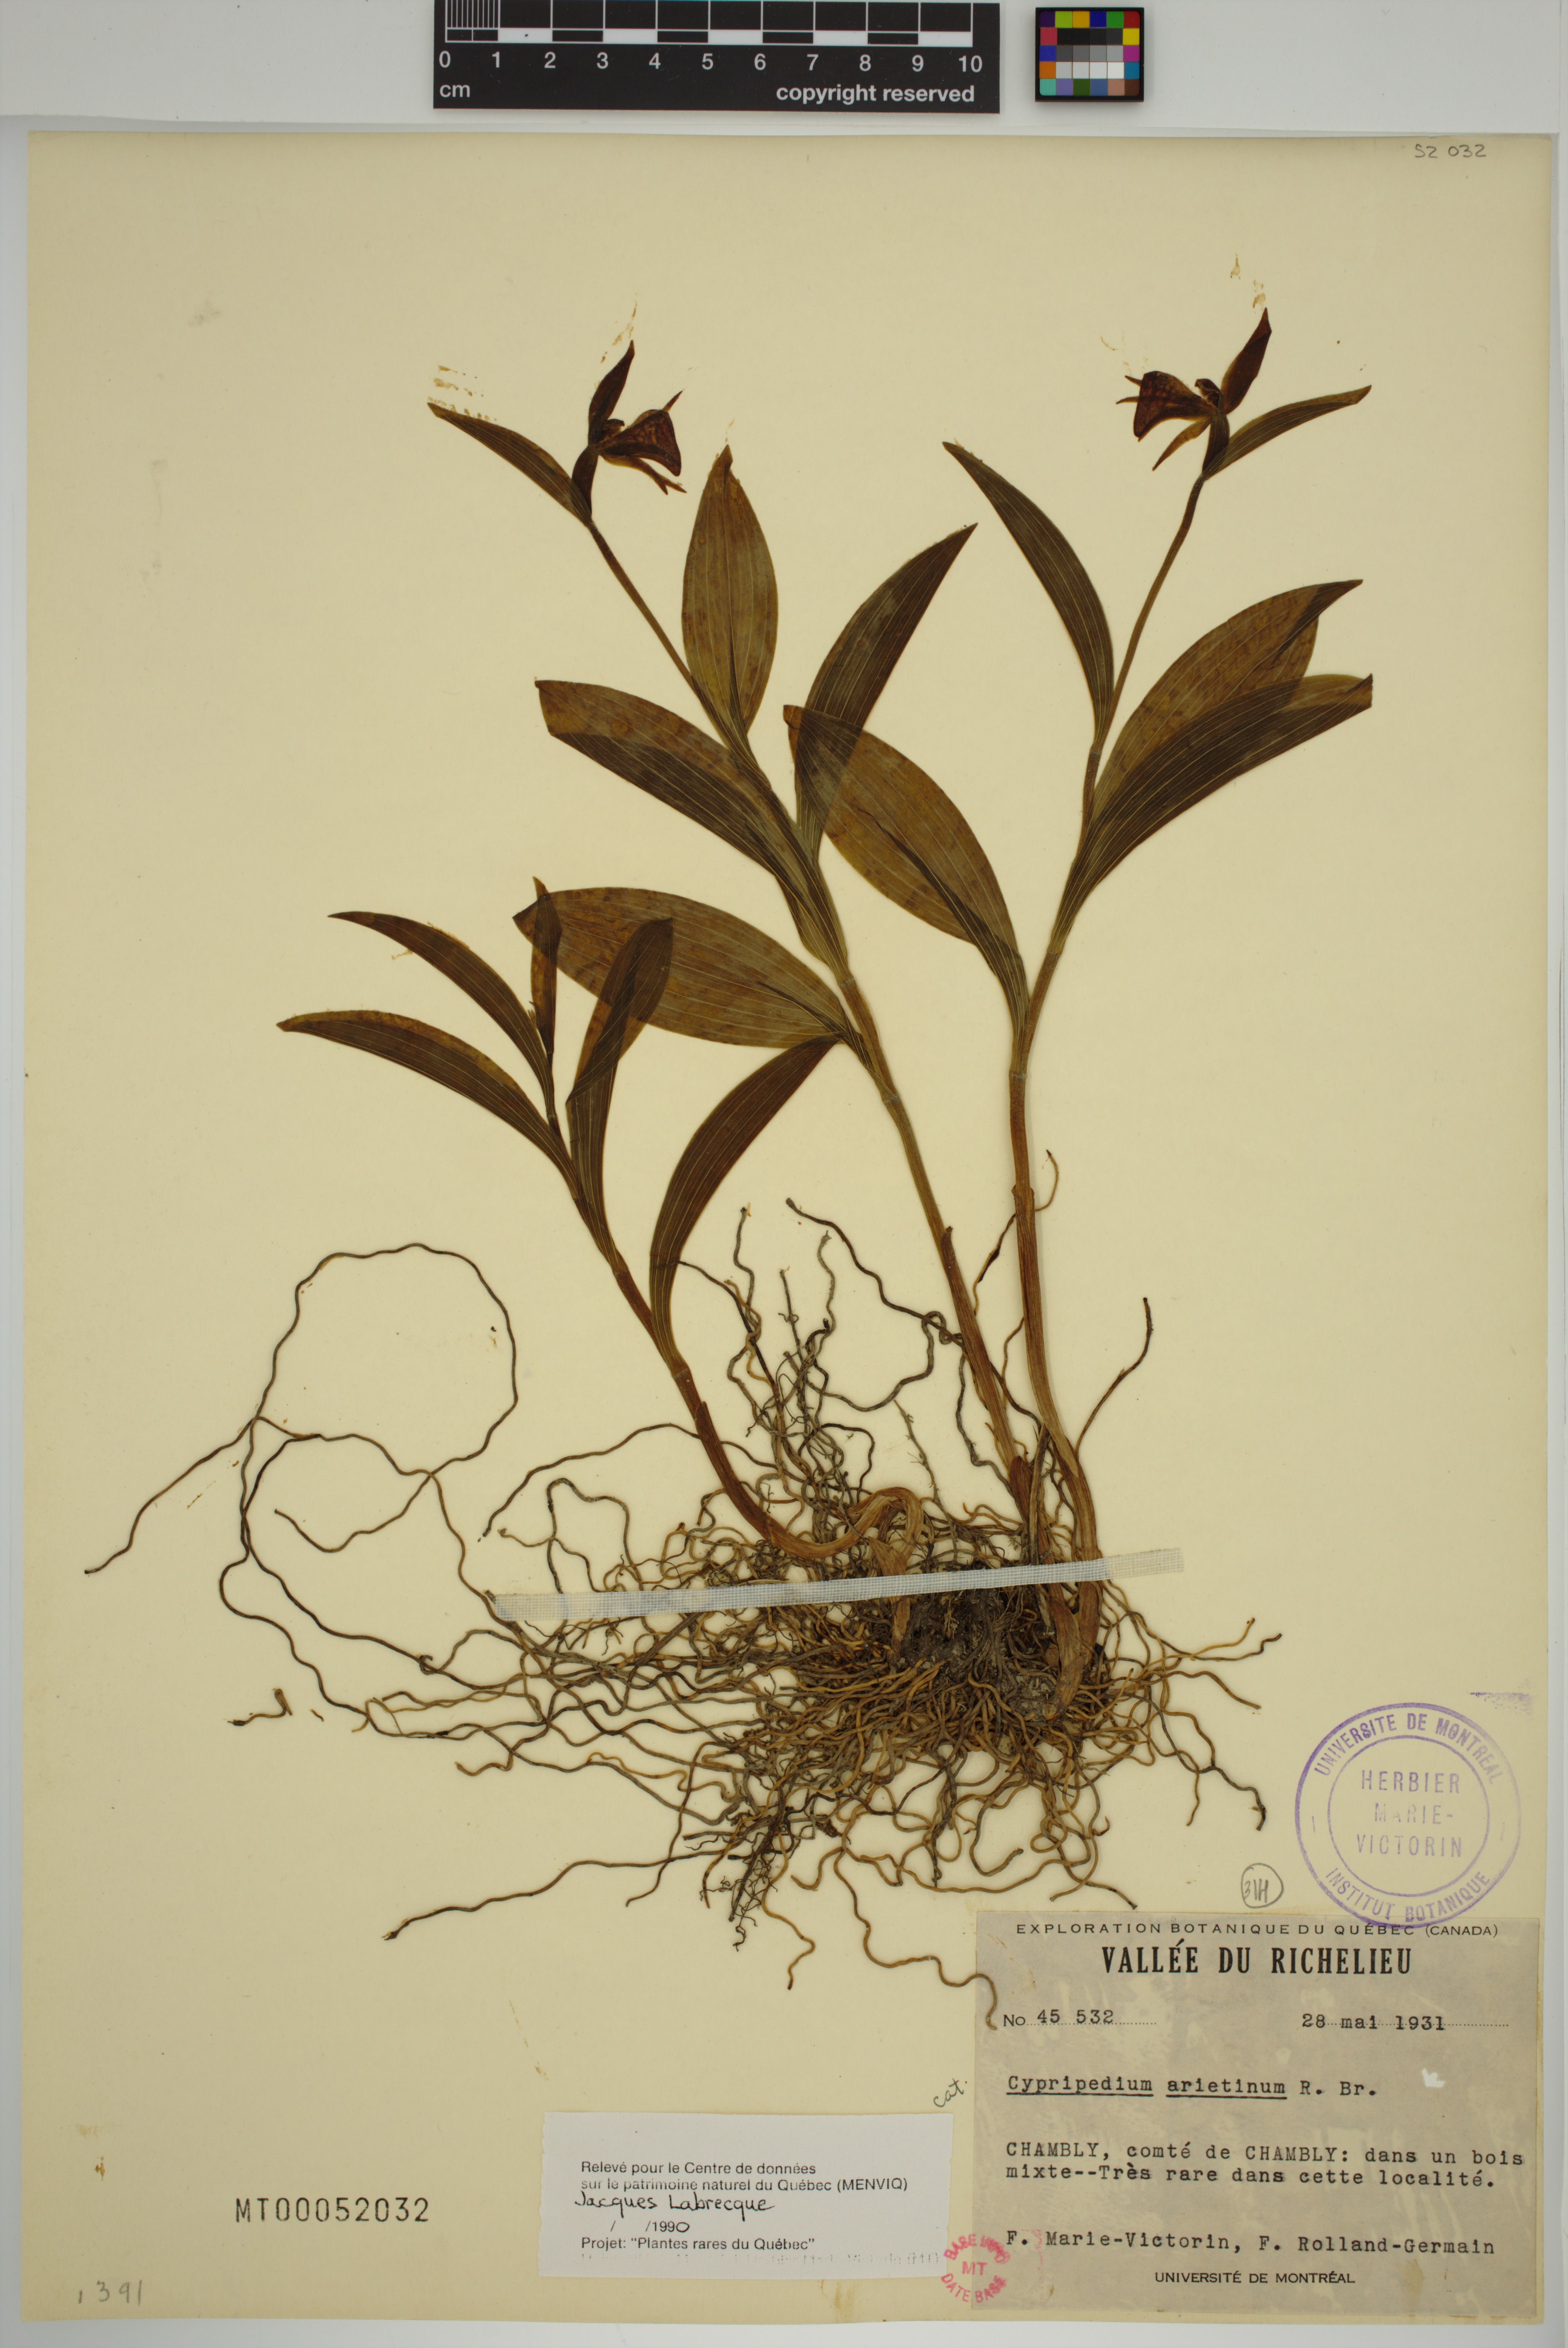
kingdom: Plantae
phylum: Tracheophyta
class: Liliopsida
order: Asparagales
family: Orchidaceae
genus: Cypripedium
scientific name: Cypripedium arietinum
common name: Ram's-head
